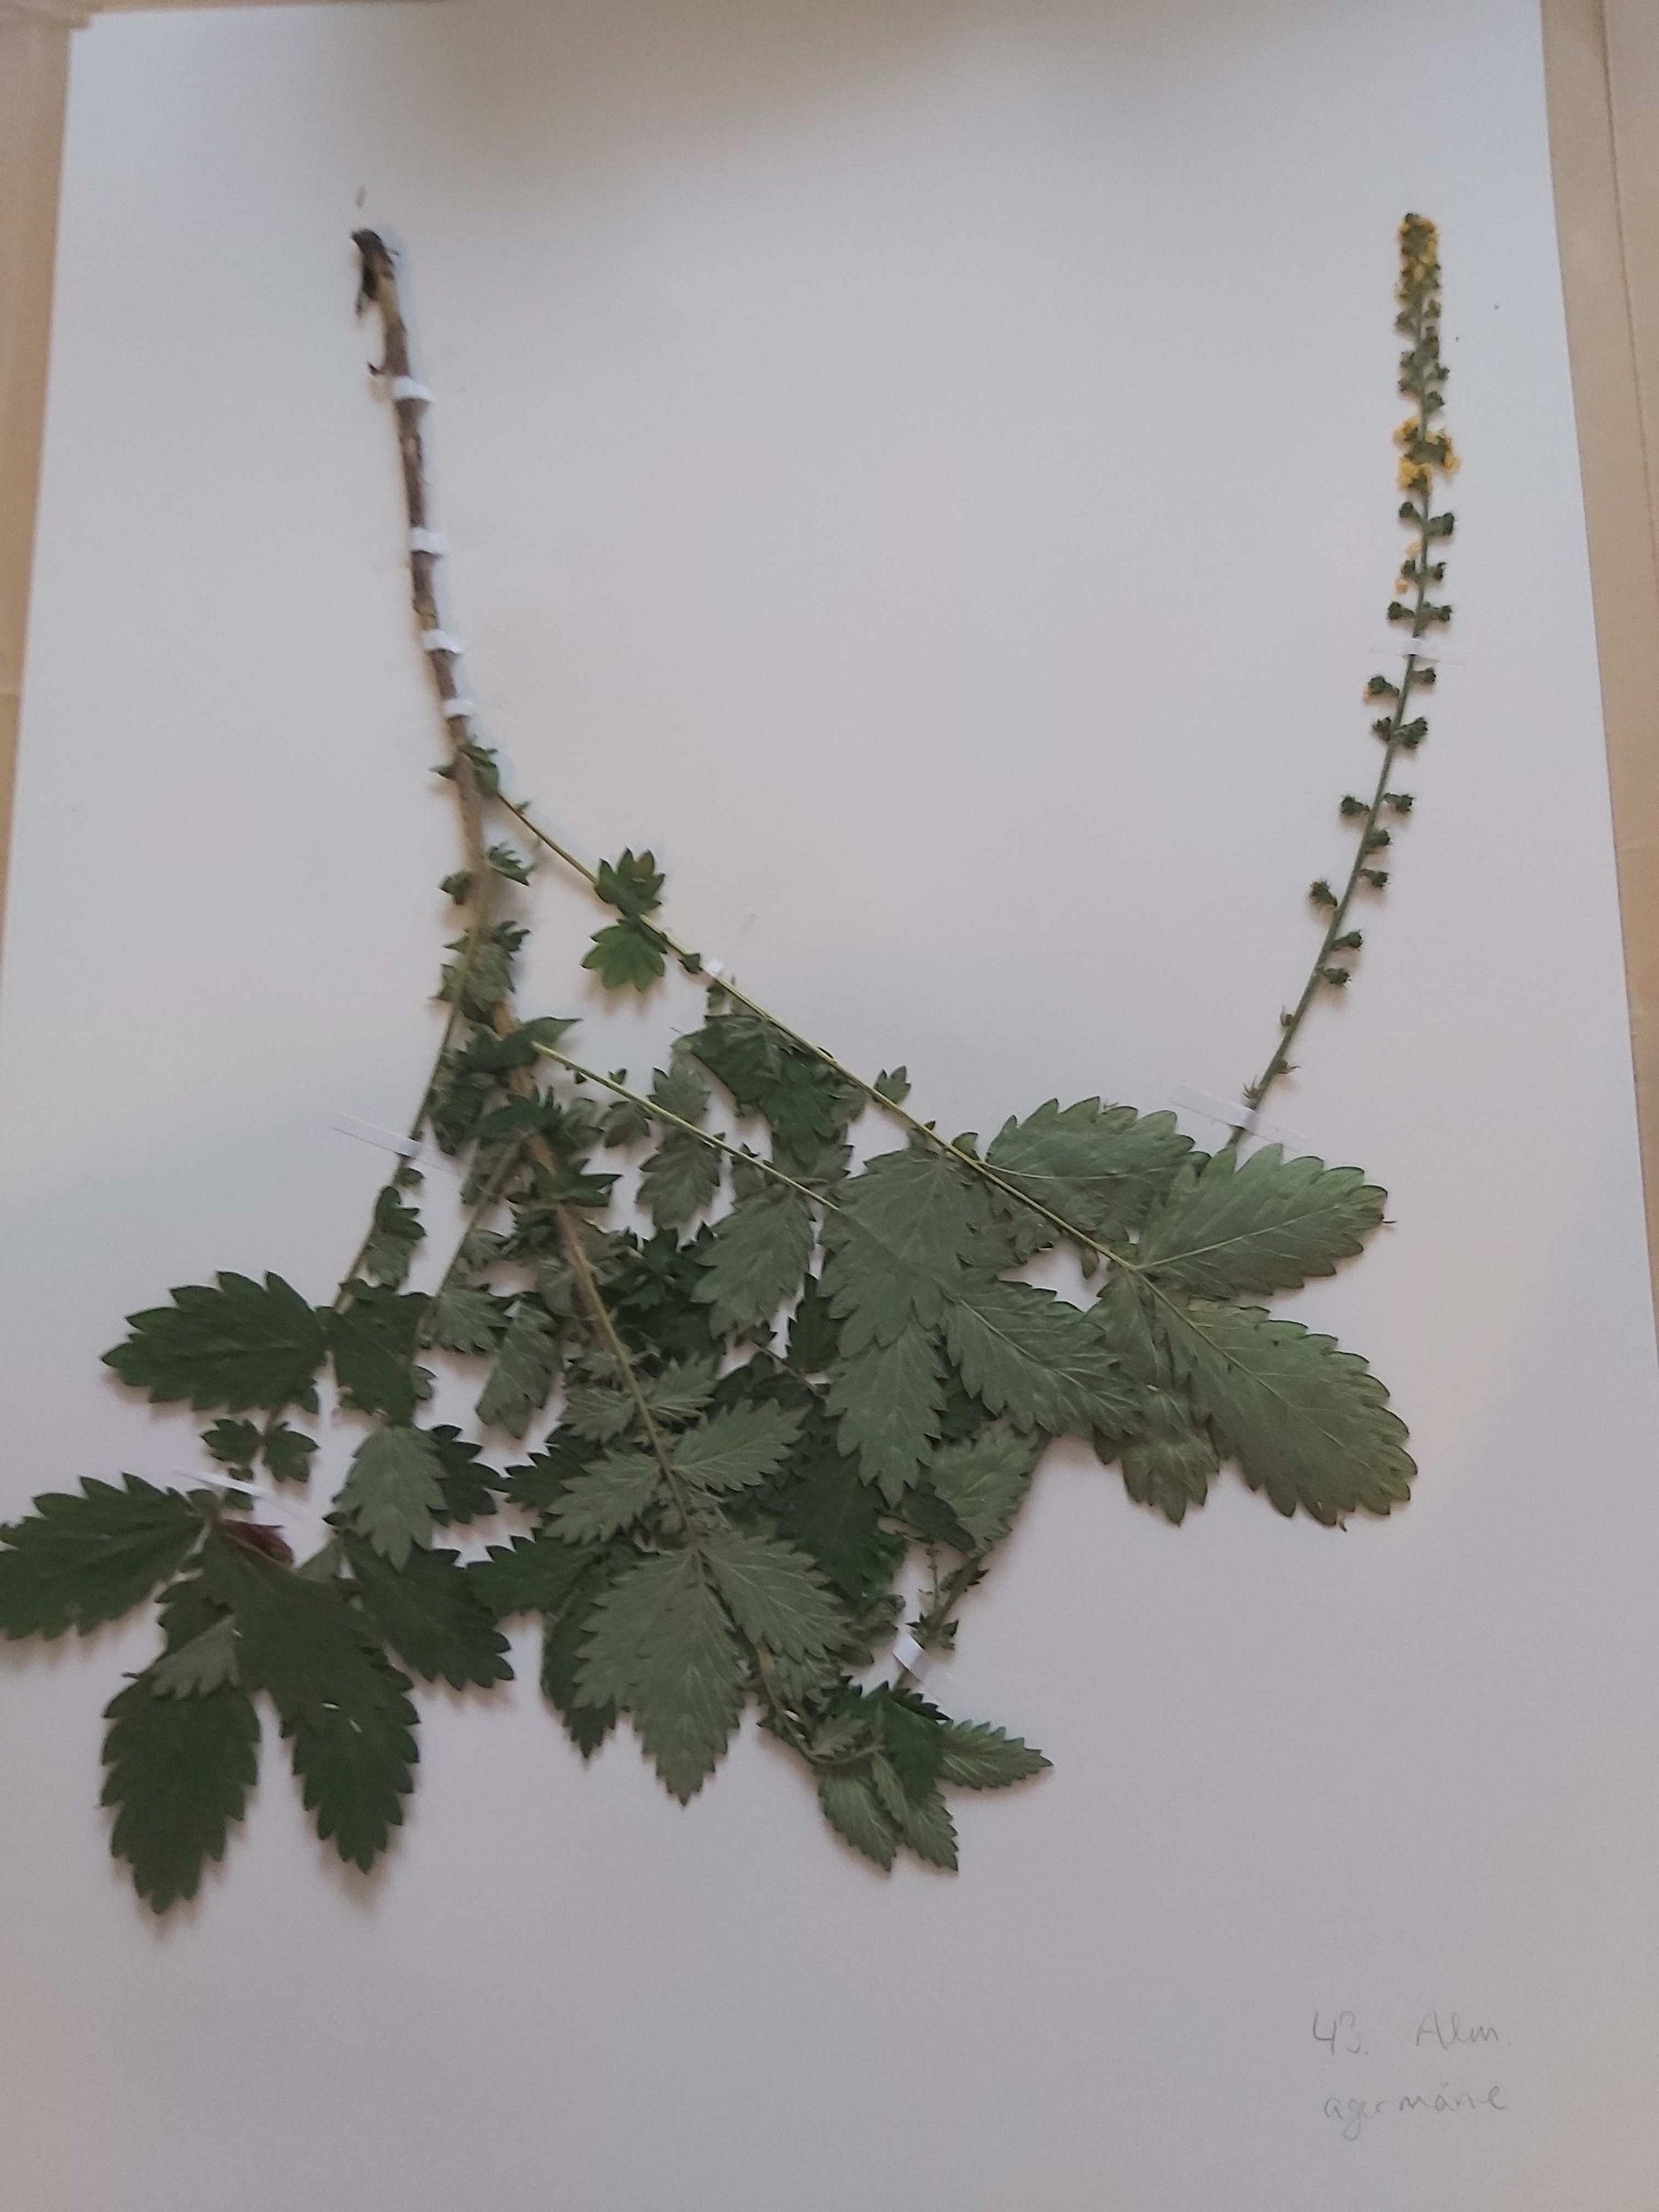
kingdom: Plantae
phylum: Tracheophyta
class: Magnoliopsida
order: Rosales
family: Rosaceae
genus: Agrimonia
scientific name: Agrimonia eupatoria
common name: Almindelig agermåne
